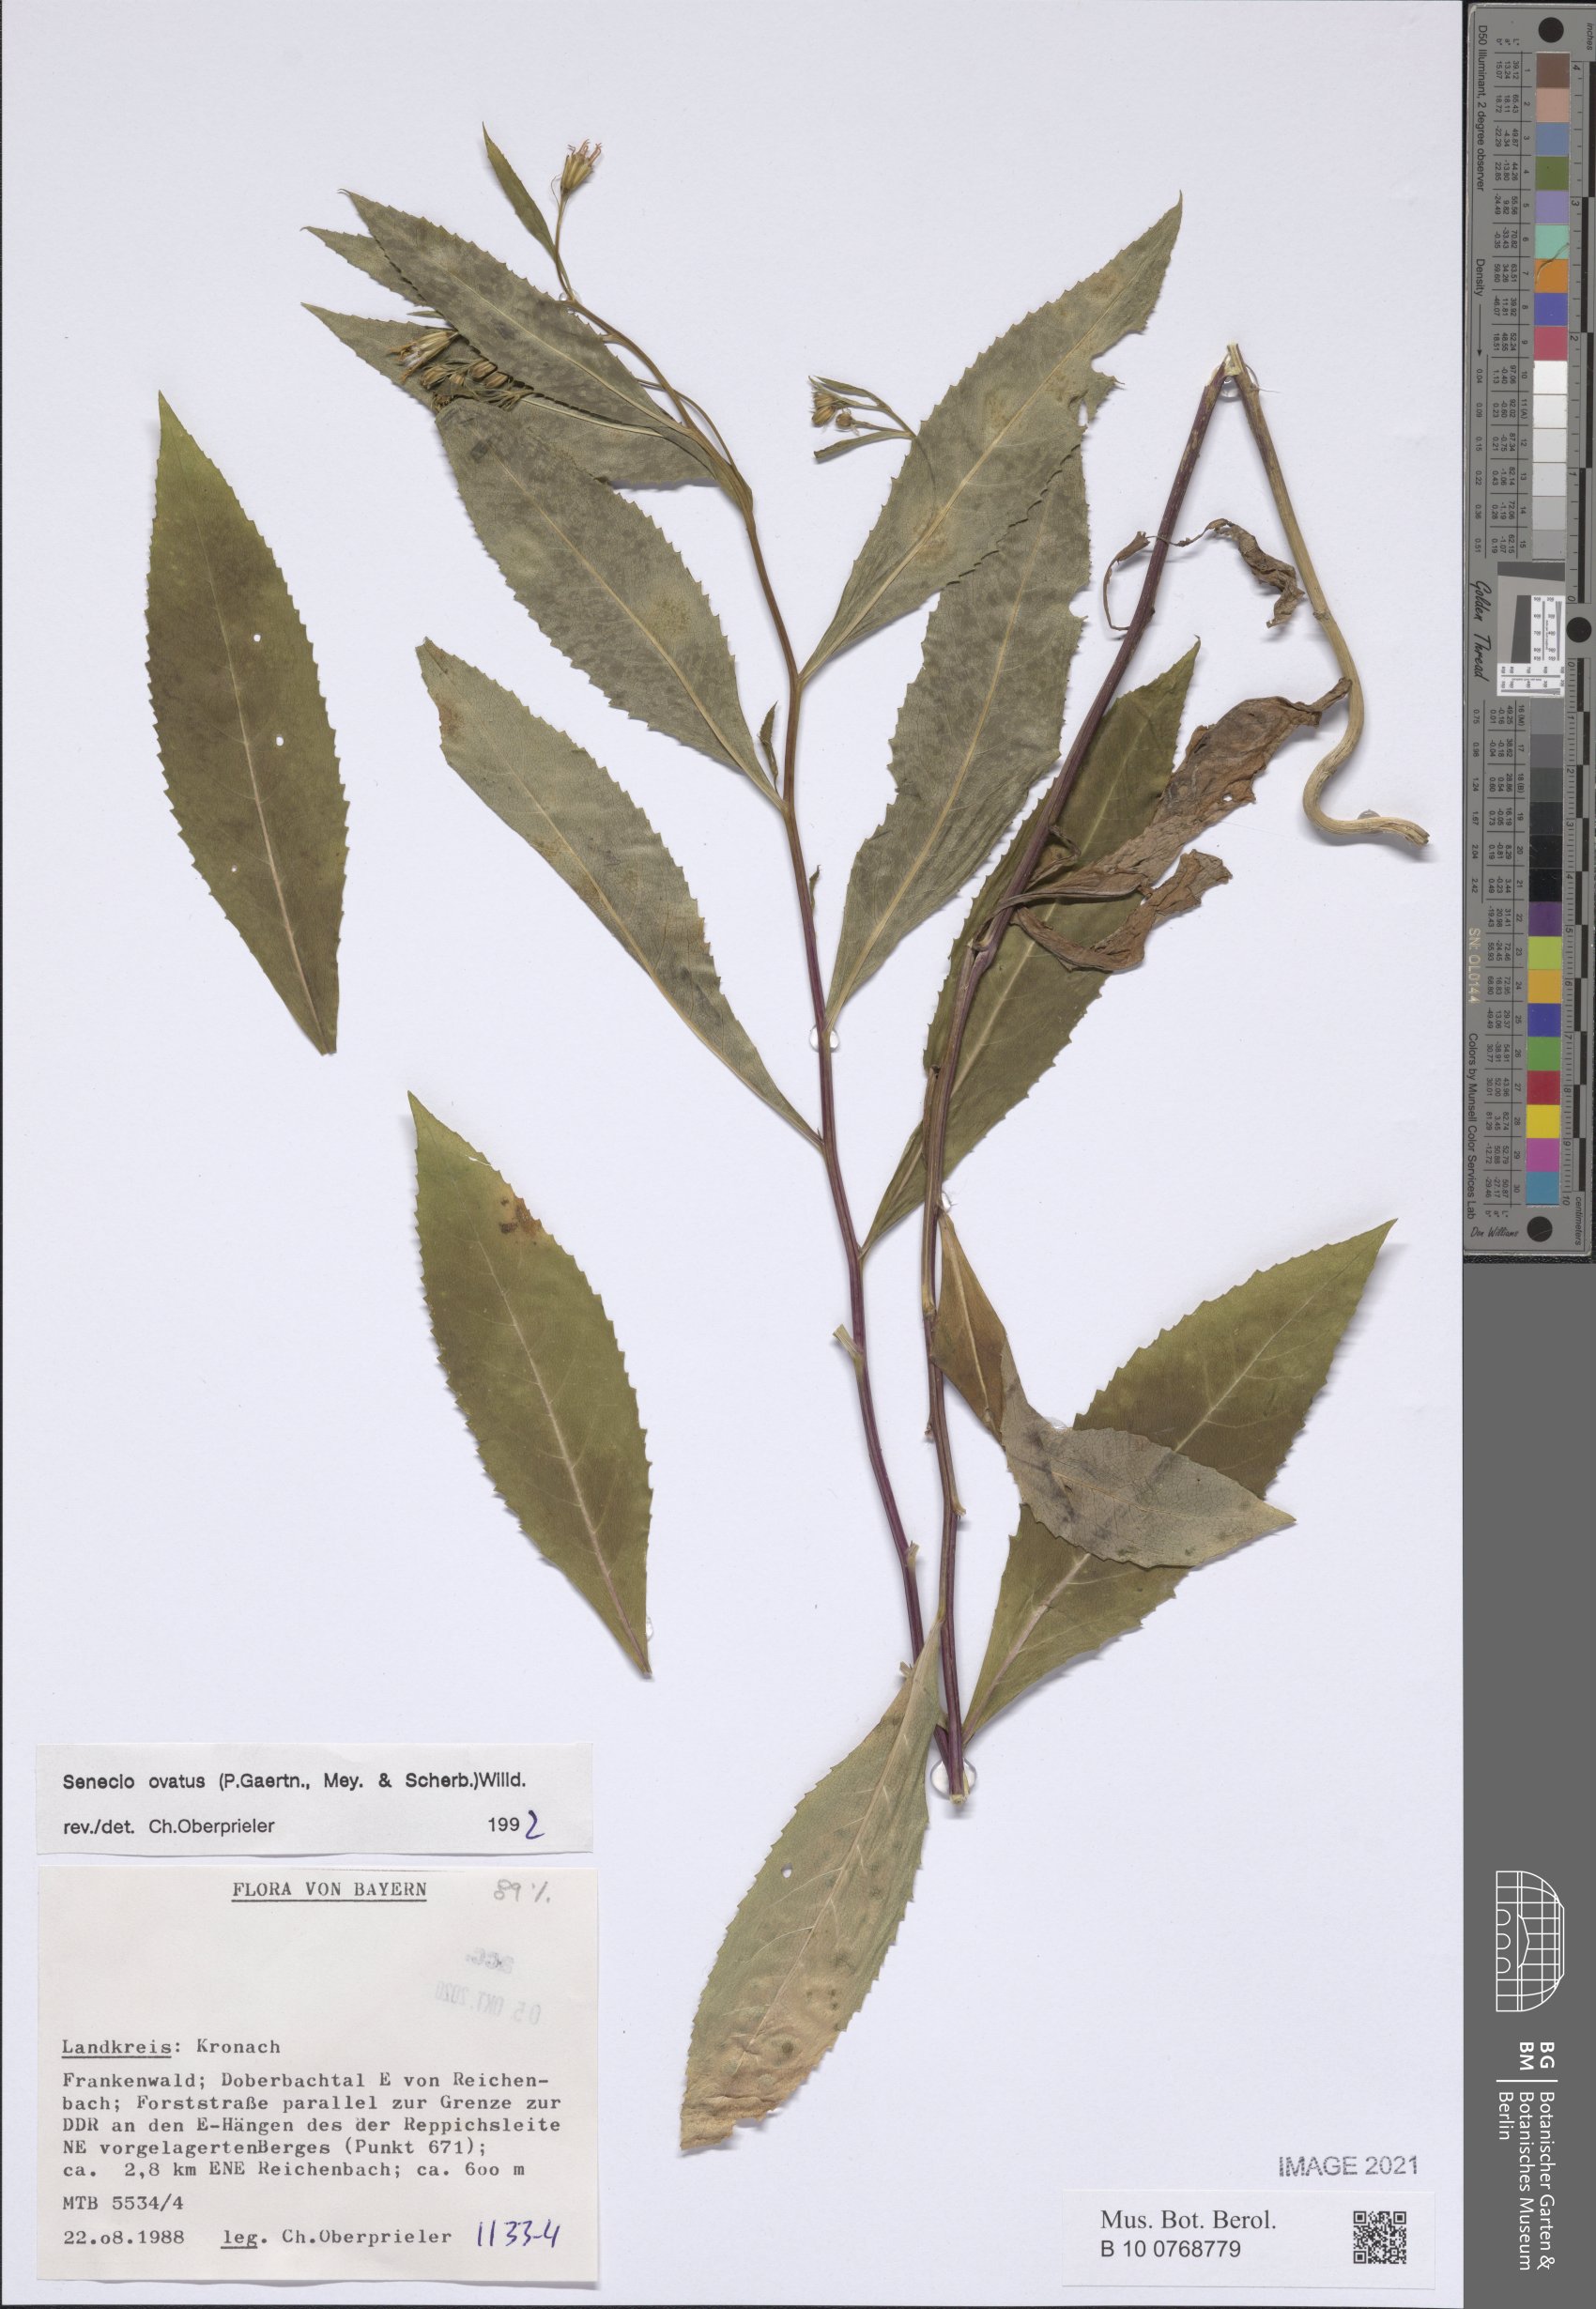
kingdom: Plantae
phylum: Tracheophyta
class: Magnoliopsida
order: Asterales
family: Asteraceae
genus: Senecio
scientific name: Senecio ovatus
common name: Wood ragwort
